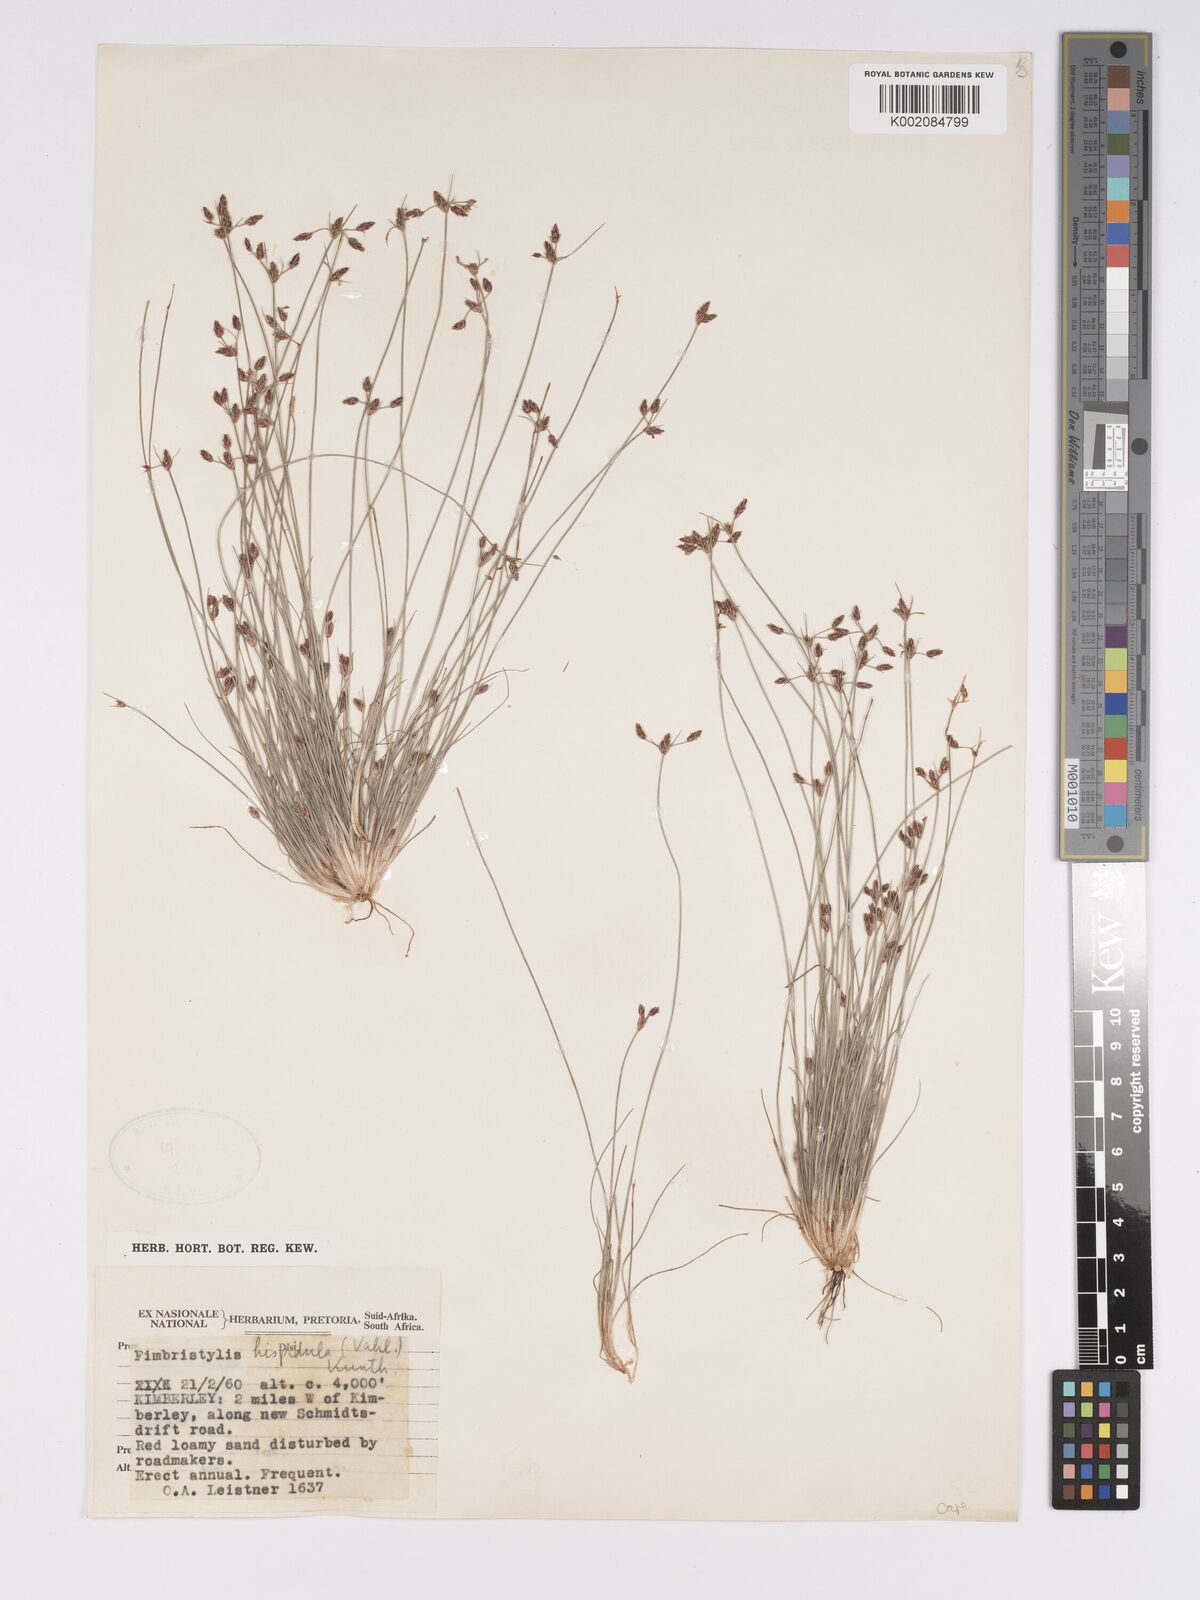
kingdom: Plantae
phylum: Tracheophyta
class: Liliopsida
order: Poales
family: Cyperaceae
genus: Bulbostylis
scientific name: Bulbostylis hispidula
